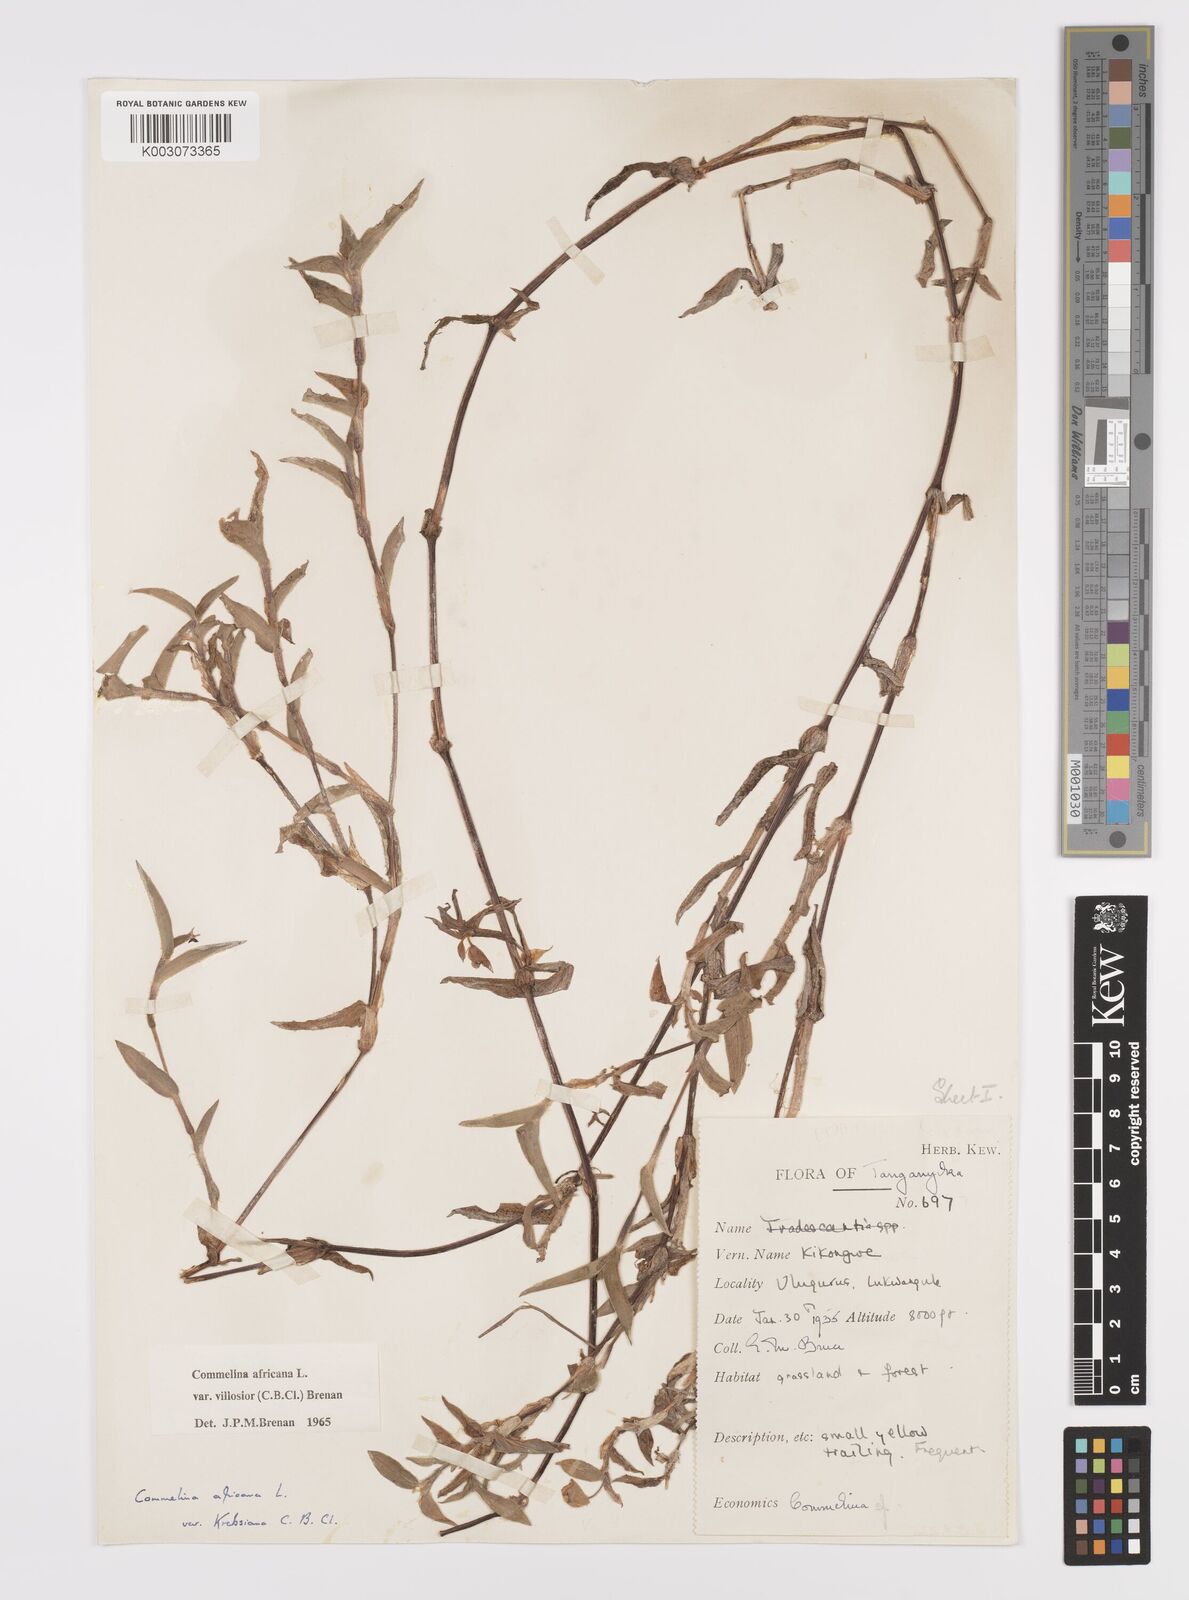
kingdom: Plantae
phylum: Tracheophyta
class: Liliopsida
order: Commelinales
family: Commelinaceae
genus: Commelina
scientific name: Commelina africana
